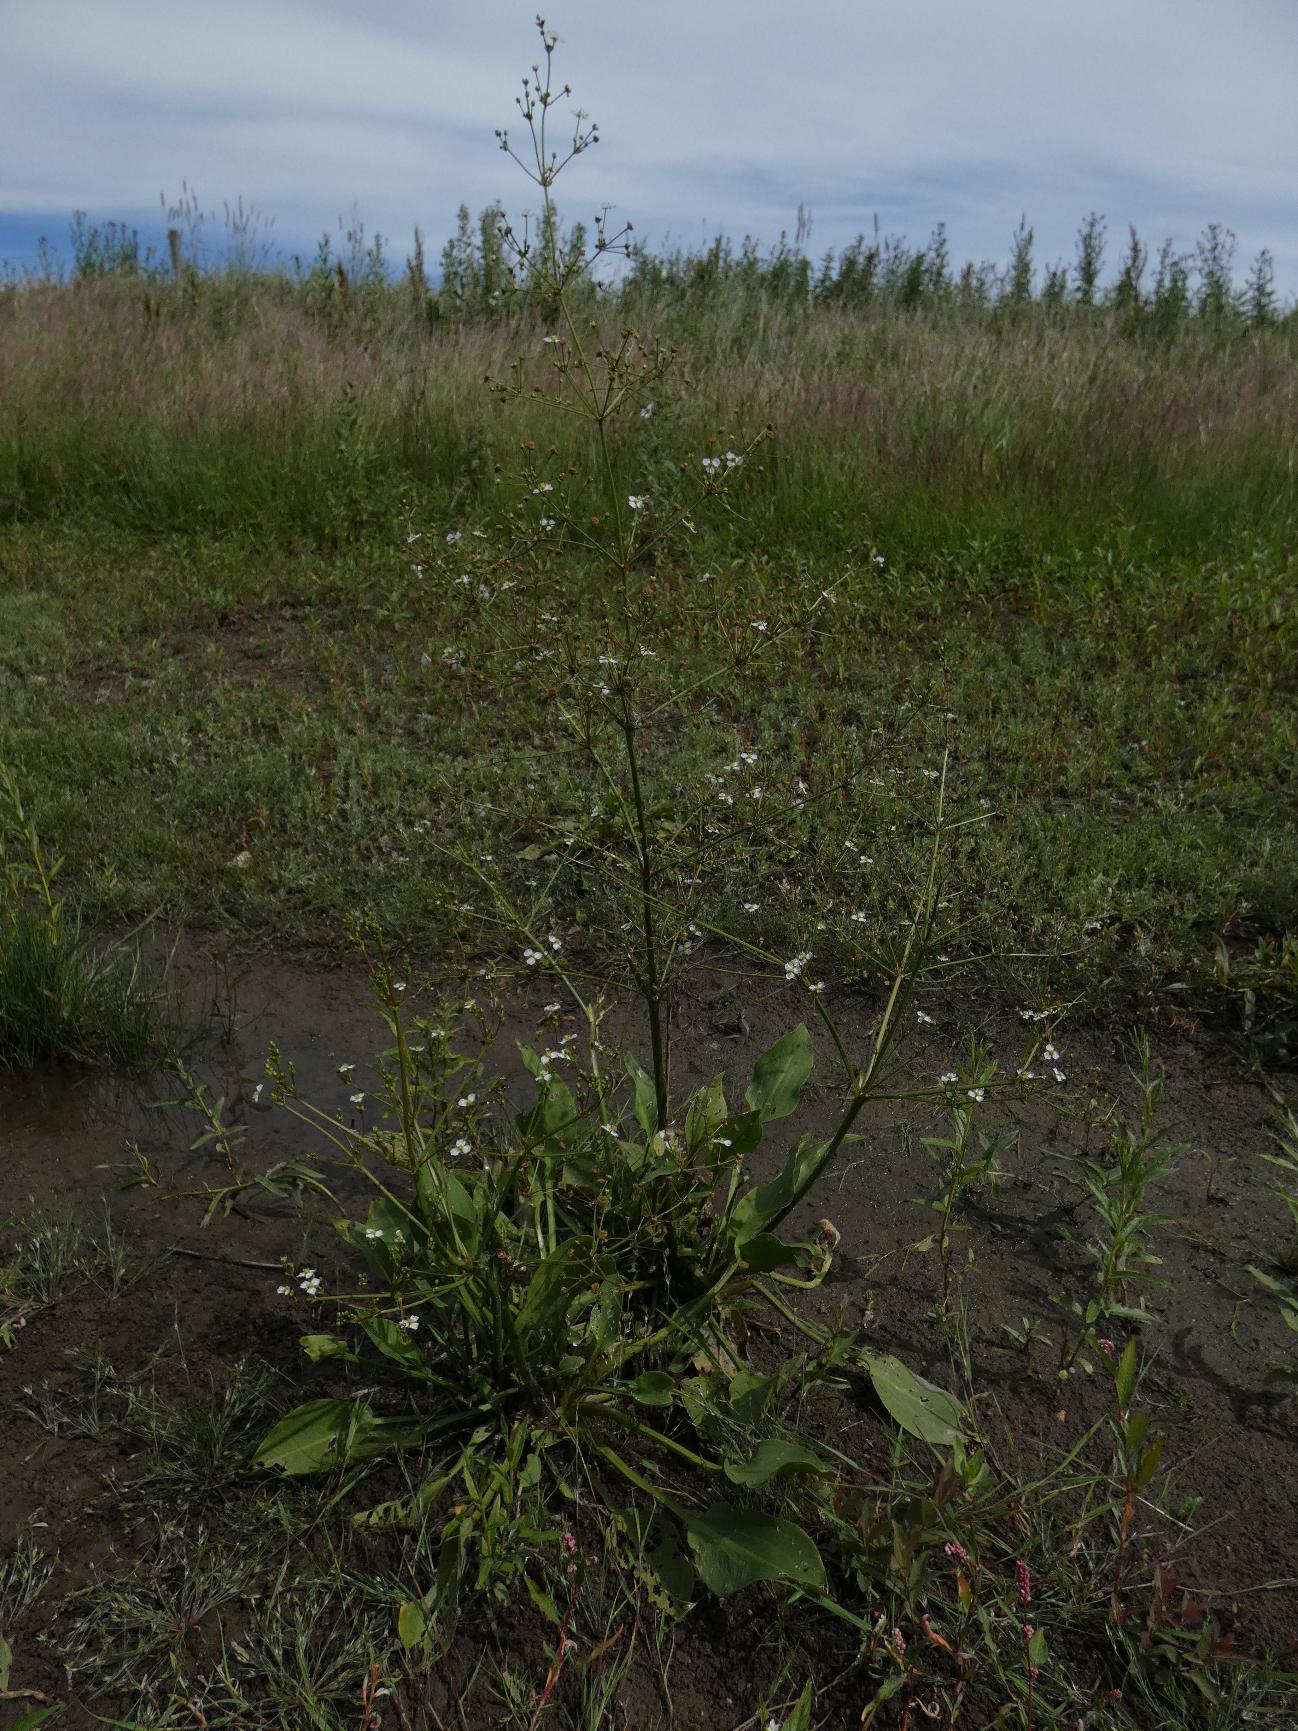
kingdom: Plantae
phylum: Tracheophyta
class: Liliopsida
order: Alismatales
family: Alismataceae
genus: Alisma
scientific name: Alisma plantago-aquatica
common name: Vejbred-skeblad
